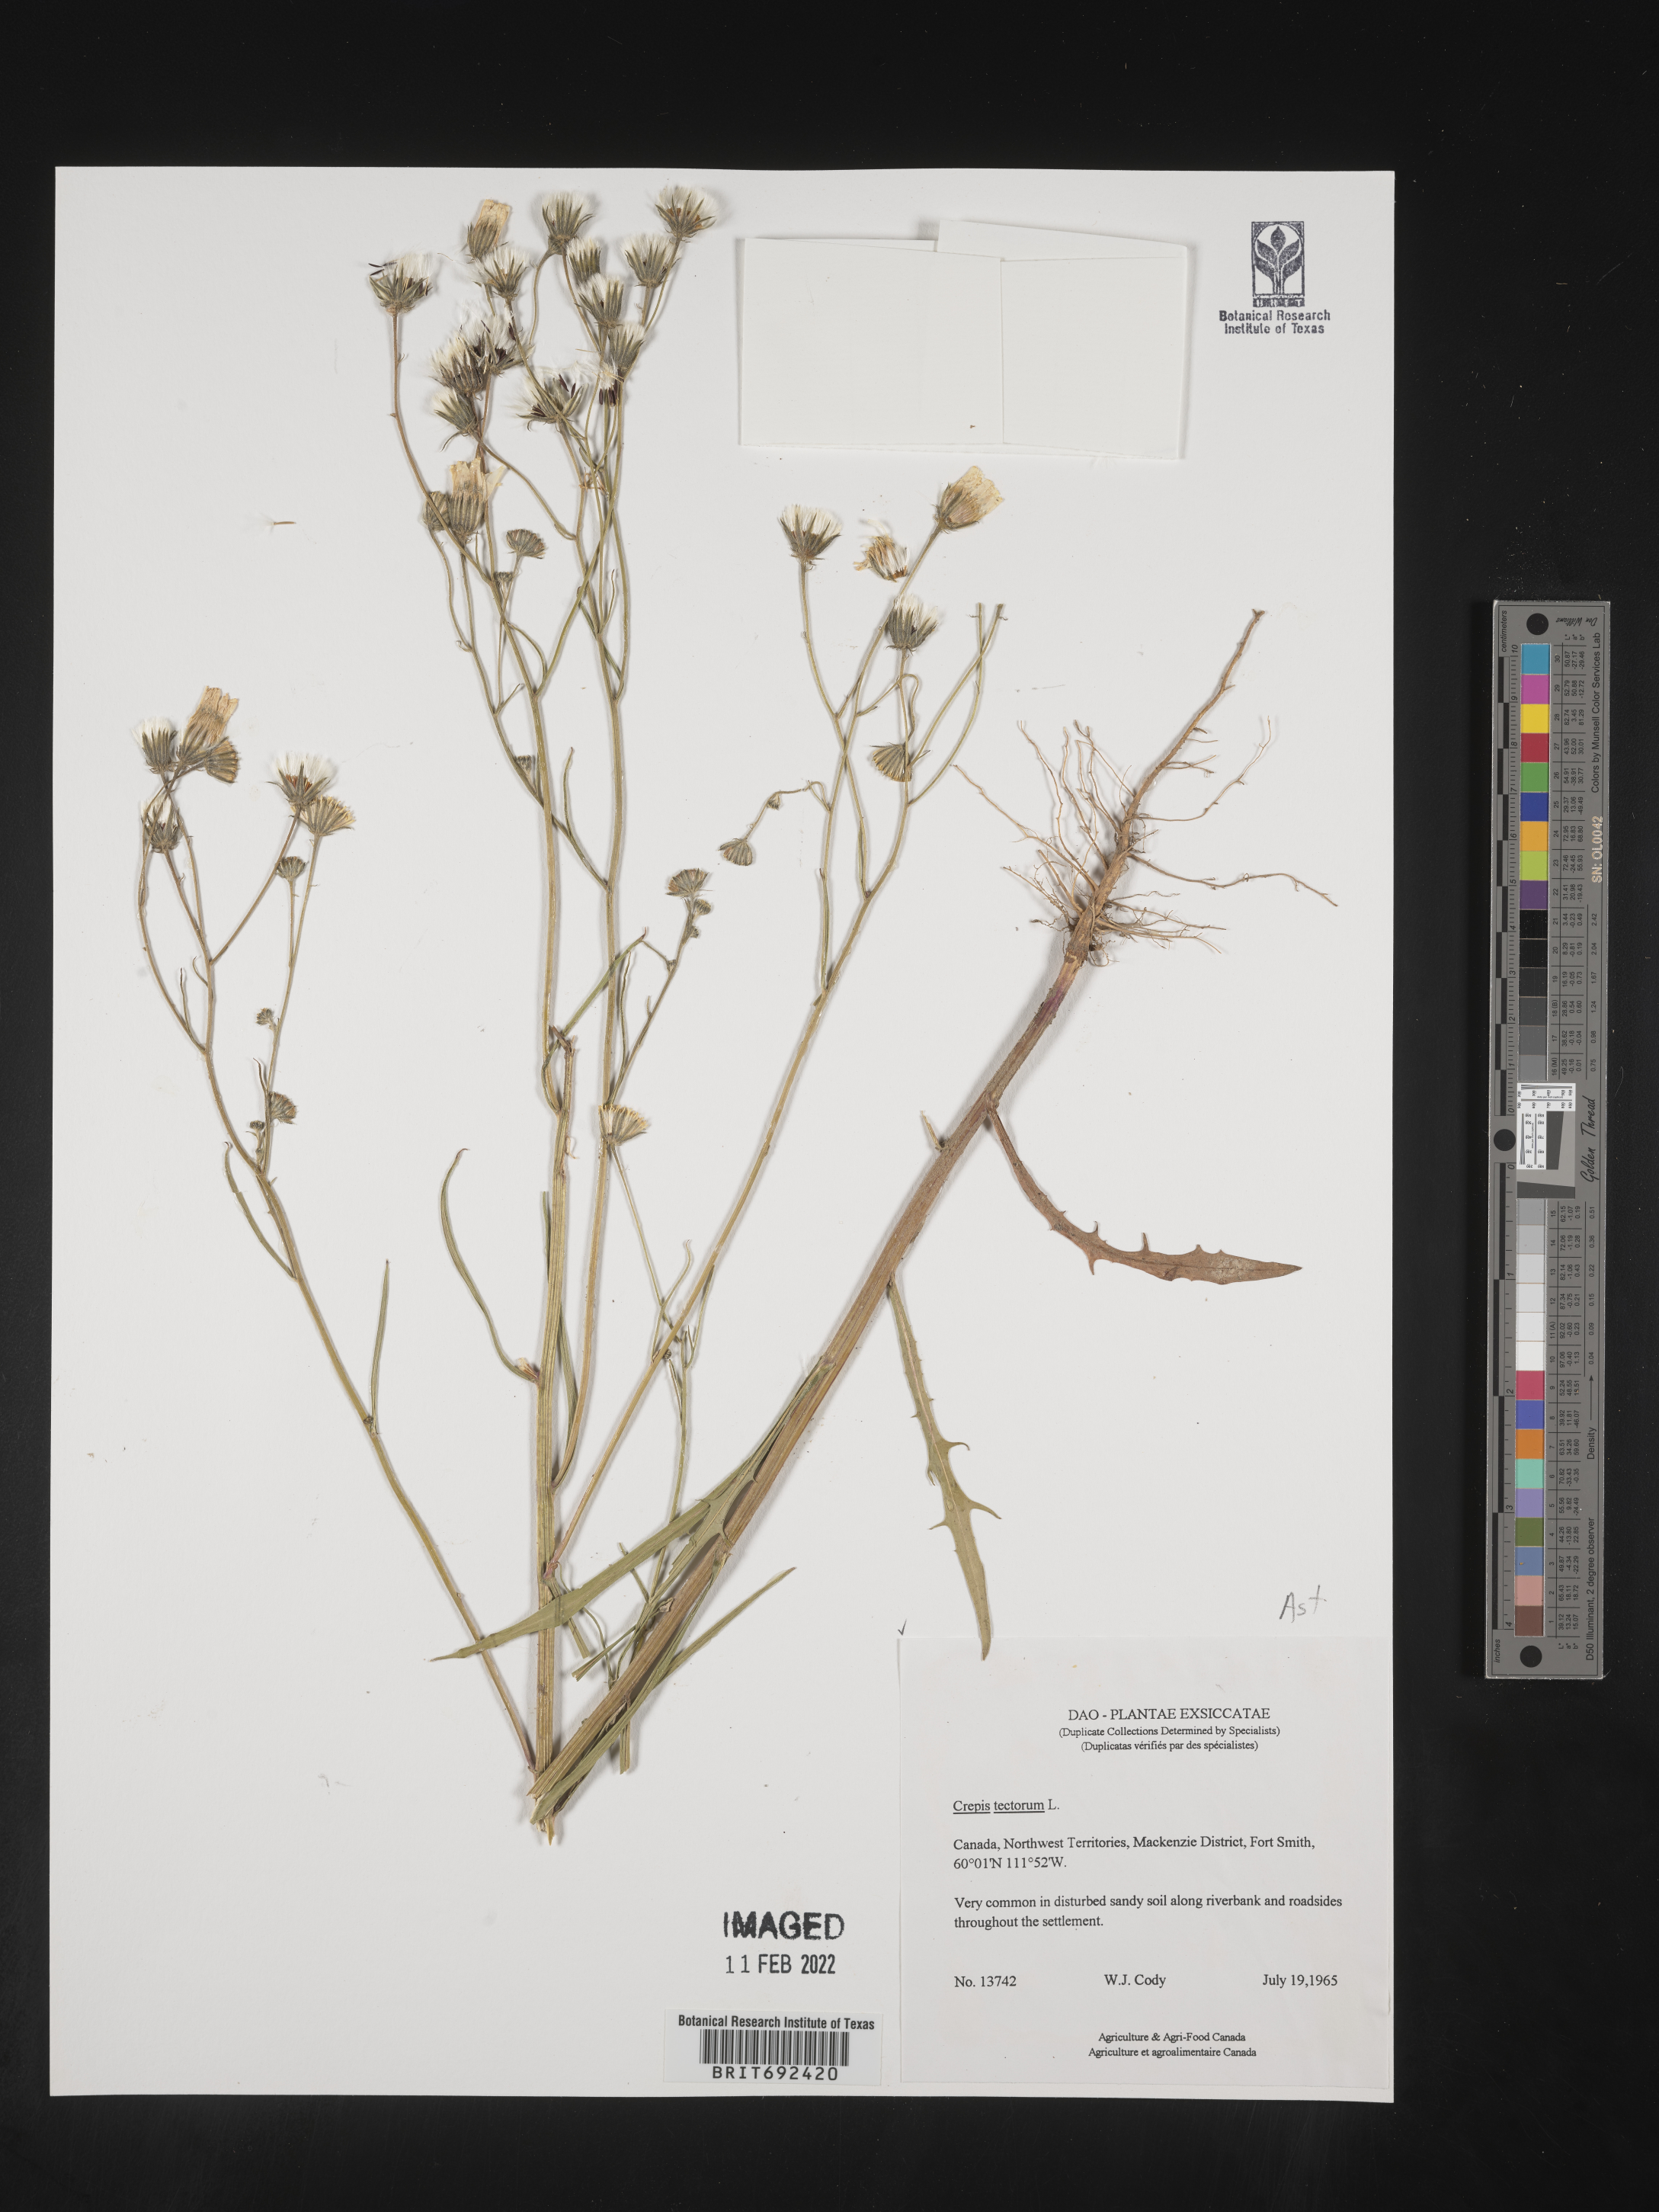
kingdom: Plantae
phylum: Tracheophyta
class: Magnoliopsida
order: Asterales
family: Asteraceae
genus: Crepis
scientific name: Crepis
